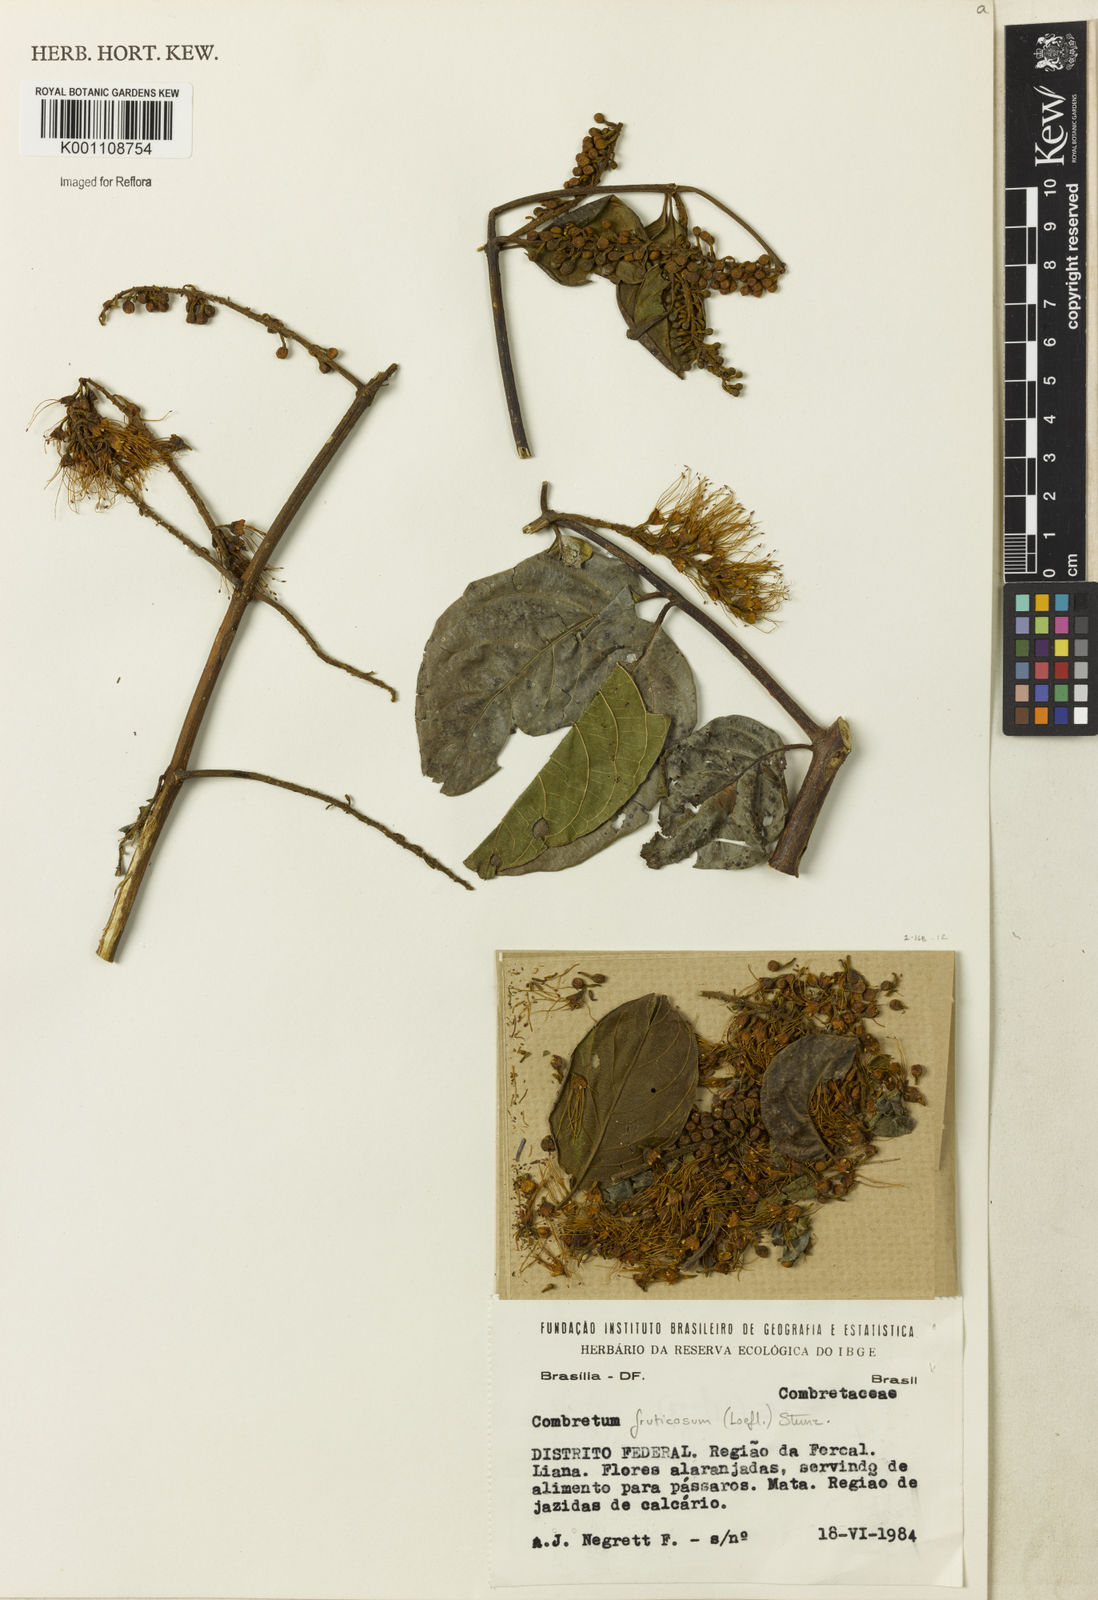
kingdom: Plantae
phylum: Tracheophyta
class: Magnoliopsida
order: Myrtales
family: Combretaceae
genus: Combretum
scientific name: Combretum fruticosum
